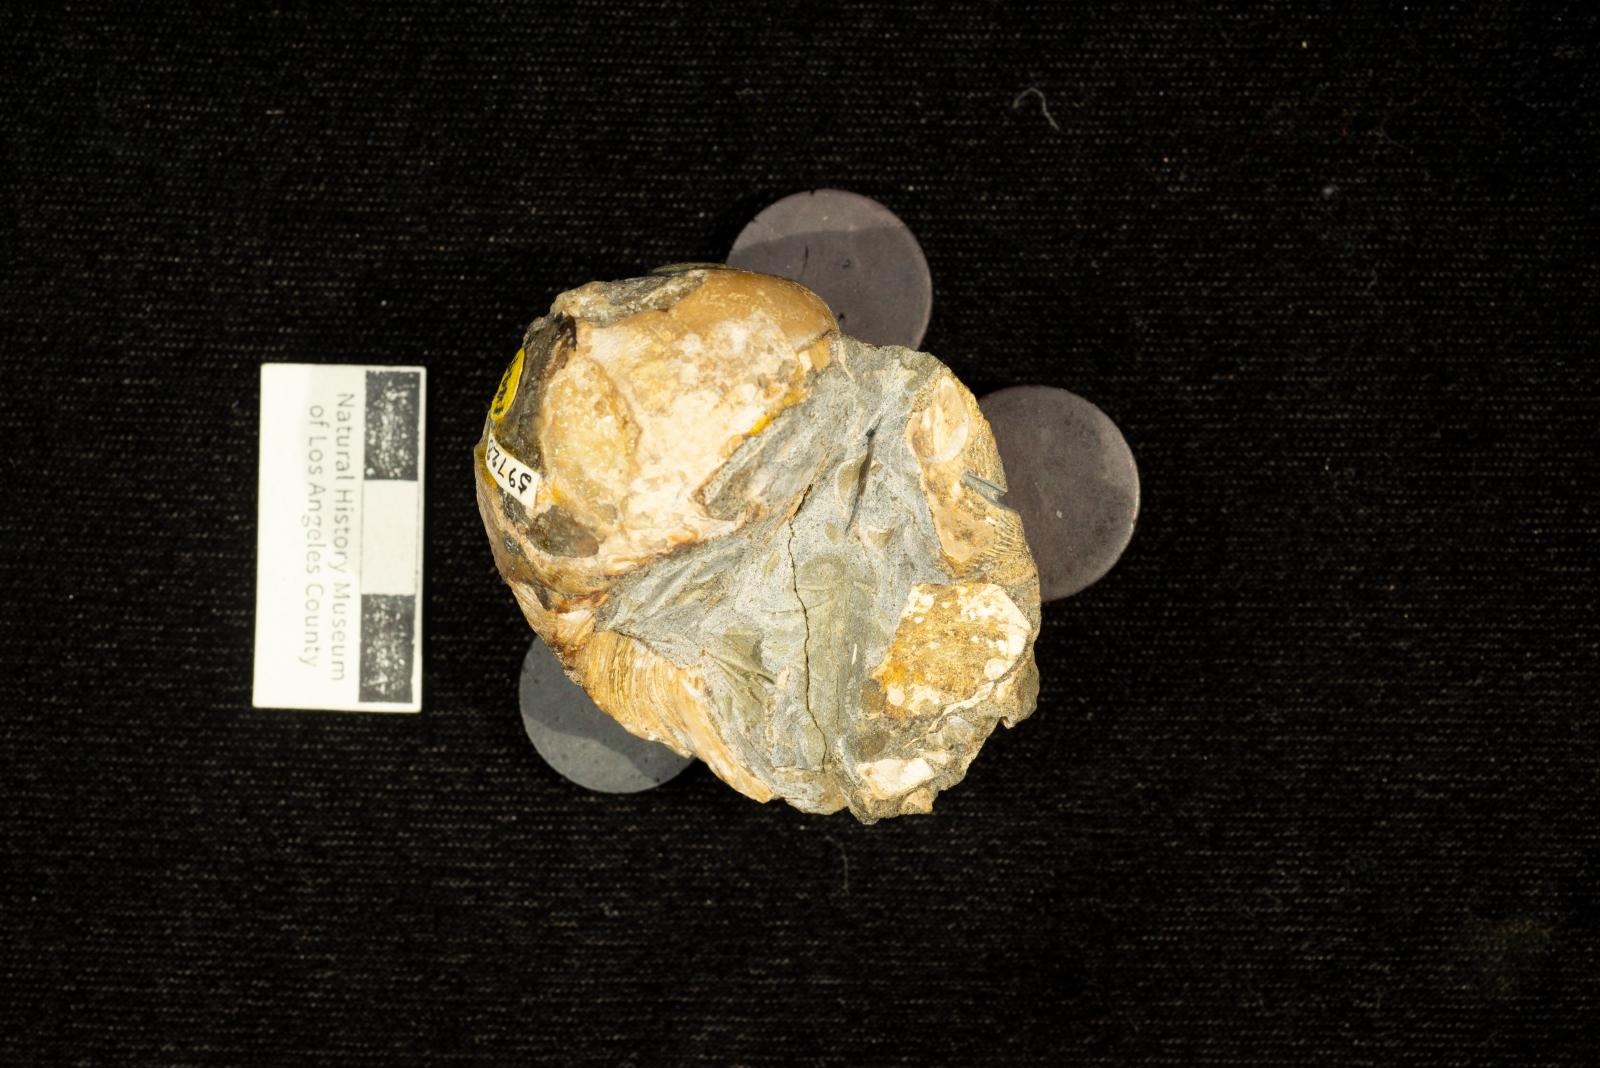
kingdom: Animalia
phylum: Mollusca
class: Gastropoda
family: Gyrodidae
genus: Gyrodes
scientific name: Gyrodes dowelli
